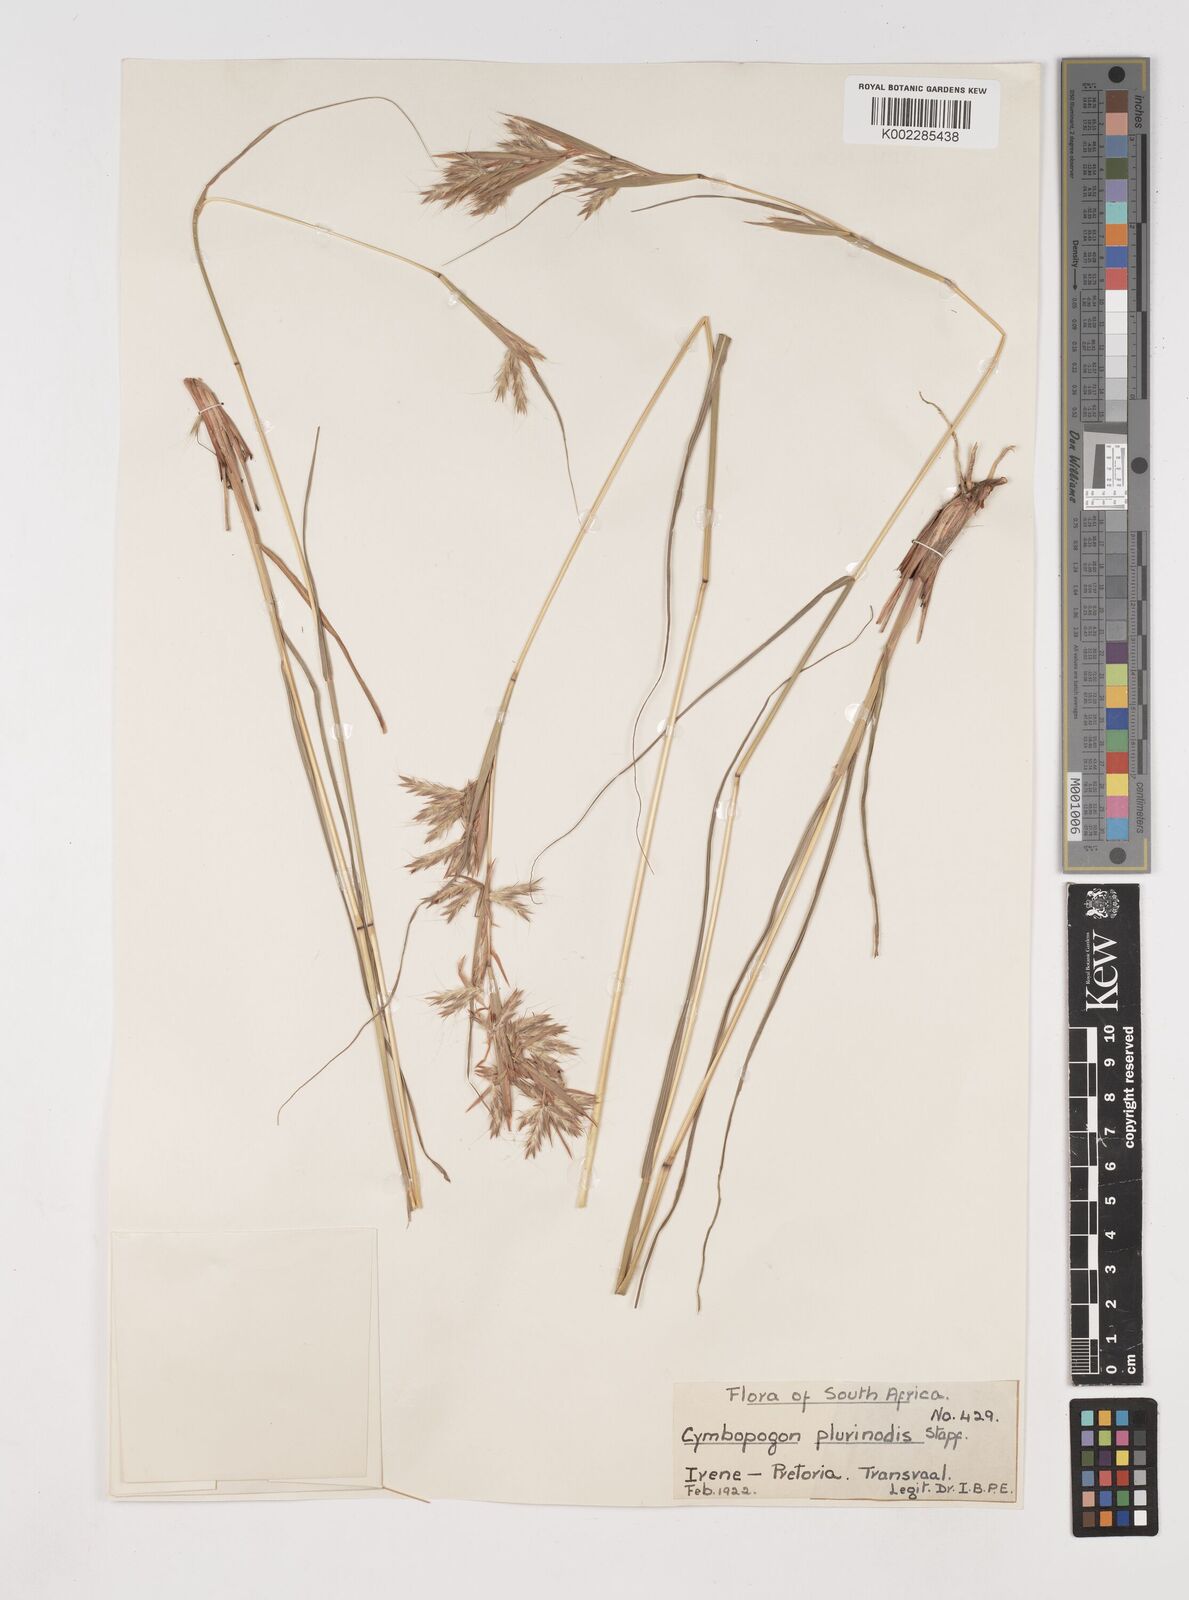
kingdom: Plantae
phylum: Tracheophyta
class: Liliopsida
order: Poales
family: Poaceae
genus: Cymbopogon
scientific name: Cymbopogon
